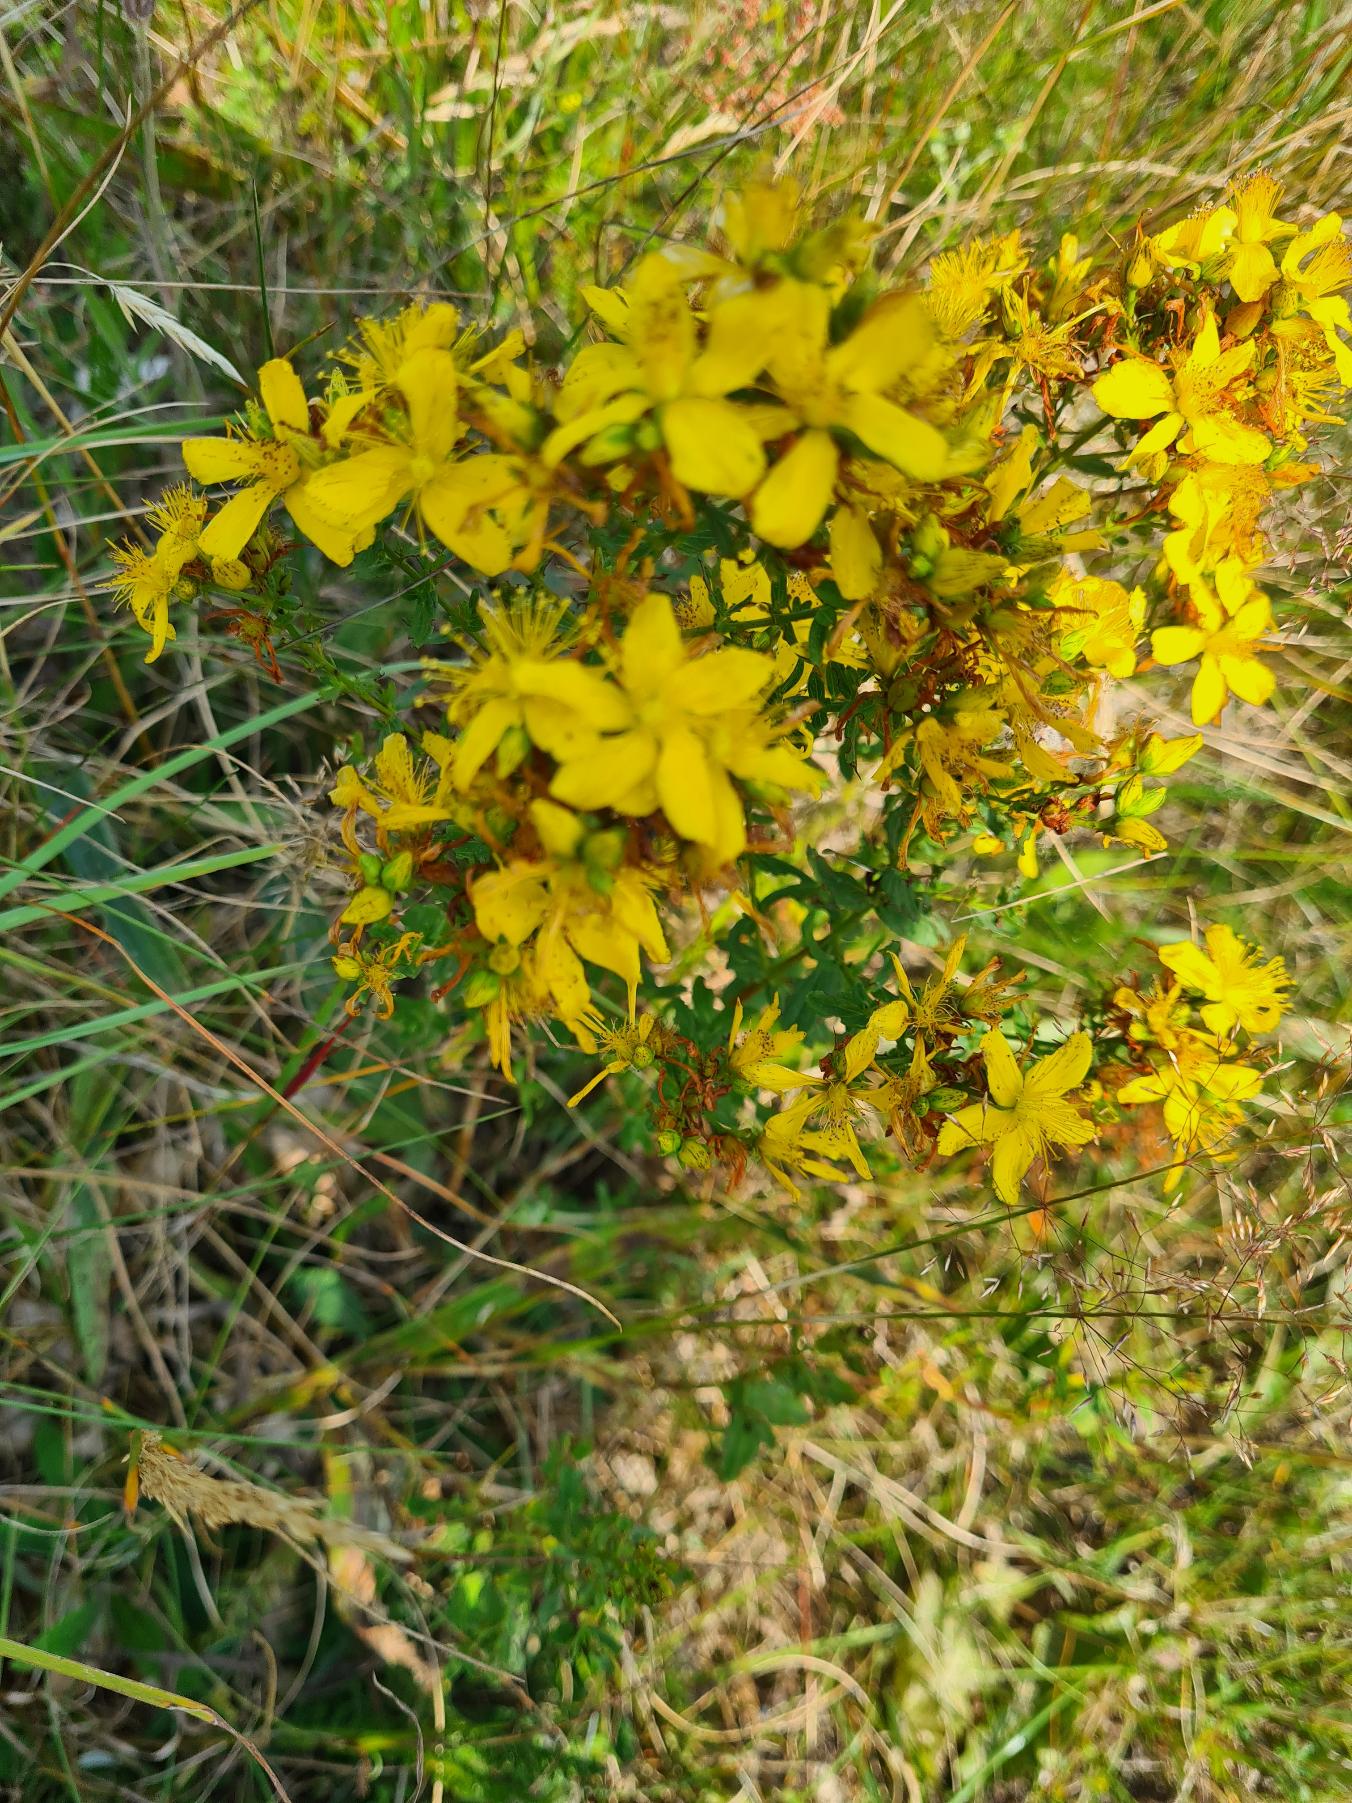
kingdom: Plantae
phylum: Tracheophyta
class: Magnoliopsida
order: Malpighiales
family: Hypericaceae
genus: Hypericum
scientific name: Hypericum perforatum
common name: Prikbladet perikon
